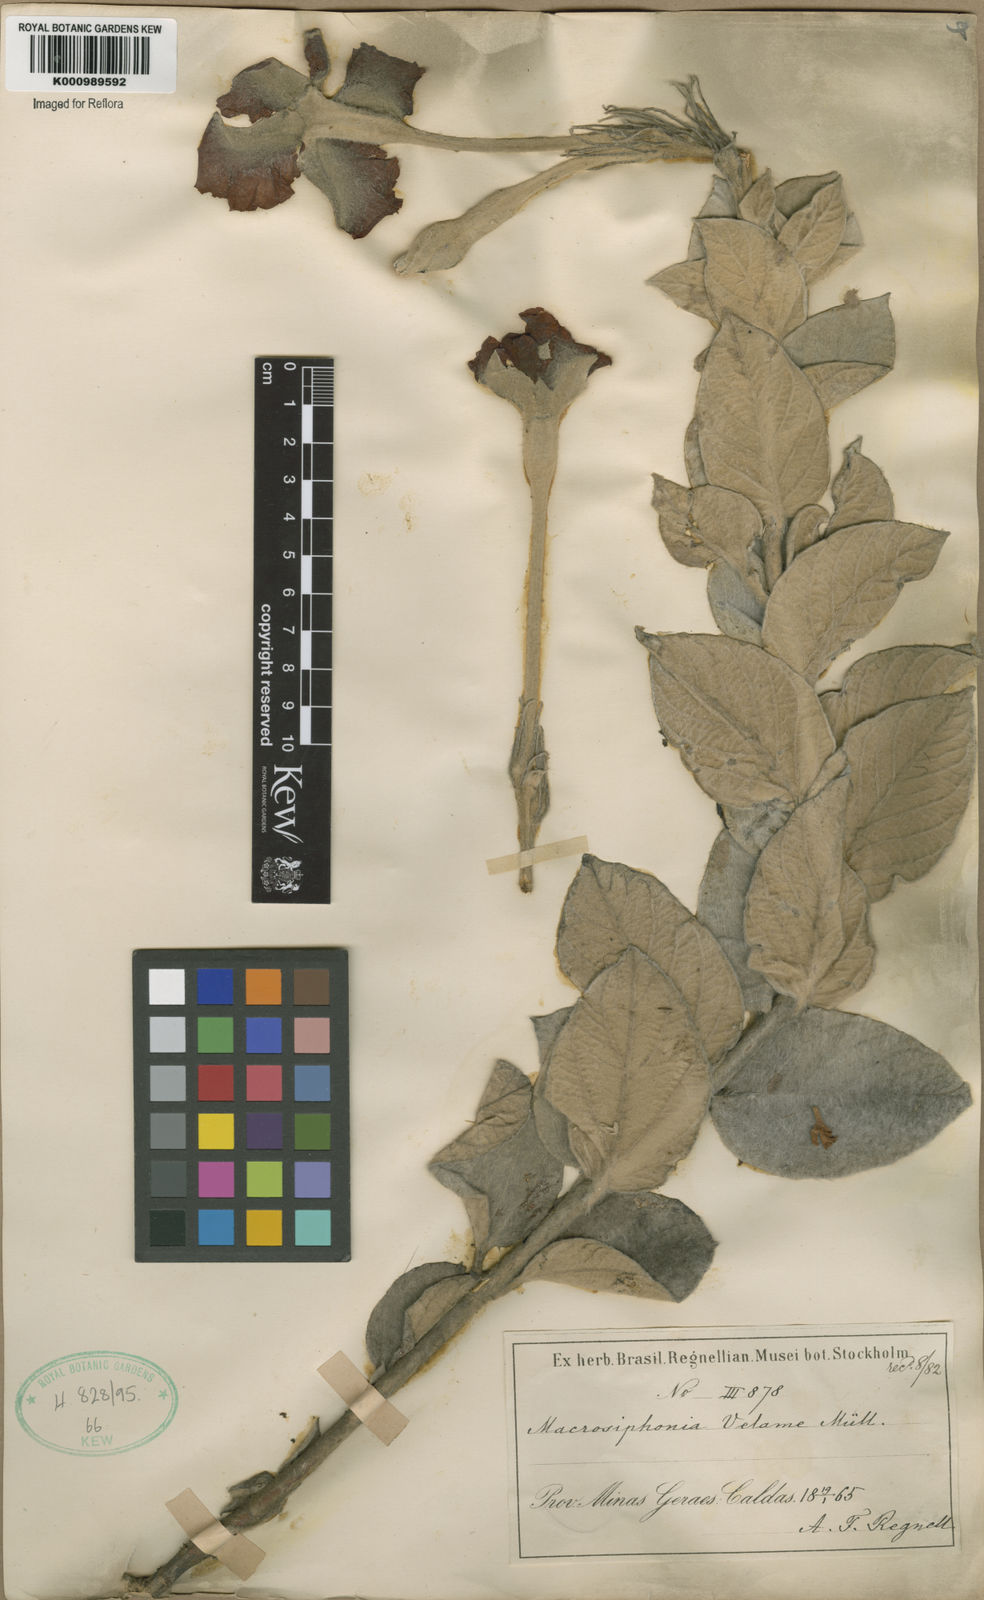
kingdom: Plantae
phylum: Tracheophyta
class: Magnoliopsida
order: Gentianales
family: Apocynaceae
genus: Mandevilla
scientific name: Mandevilla velame
